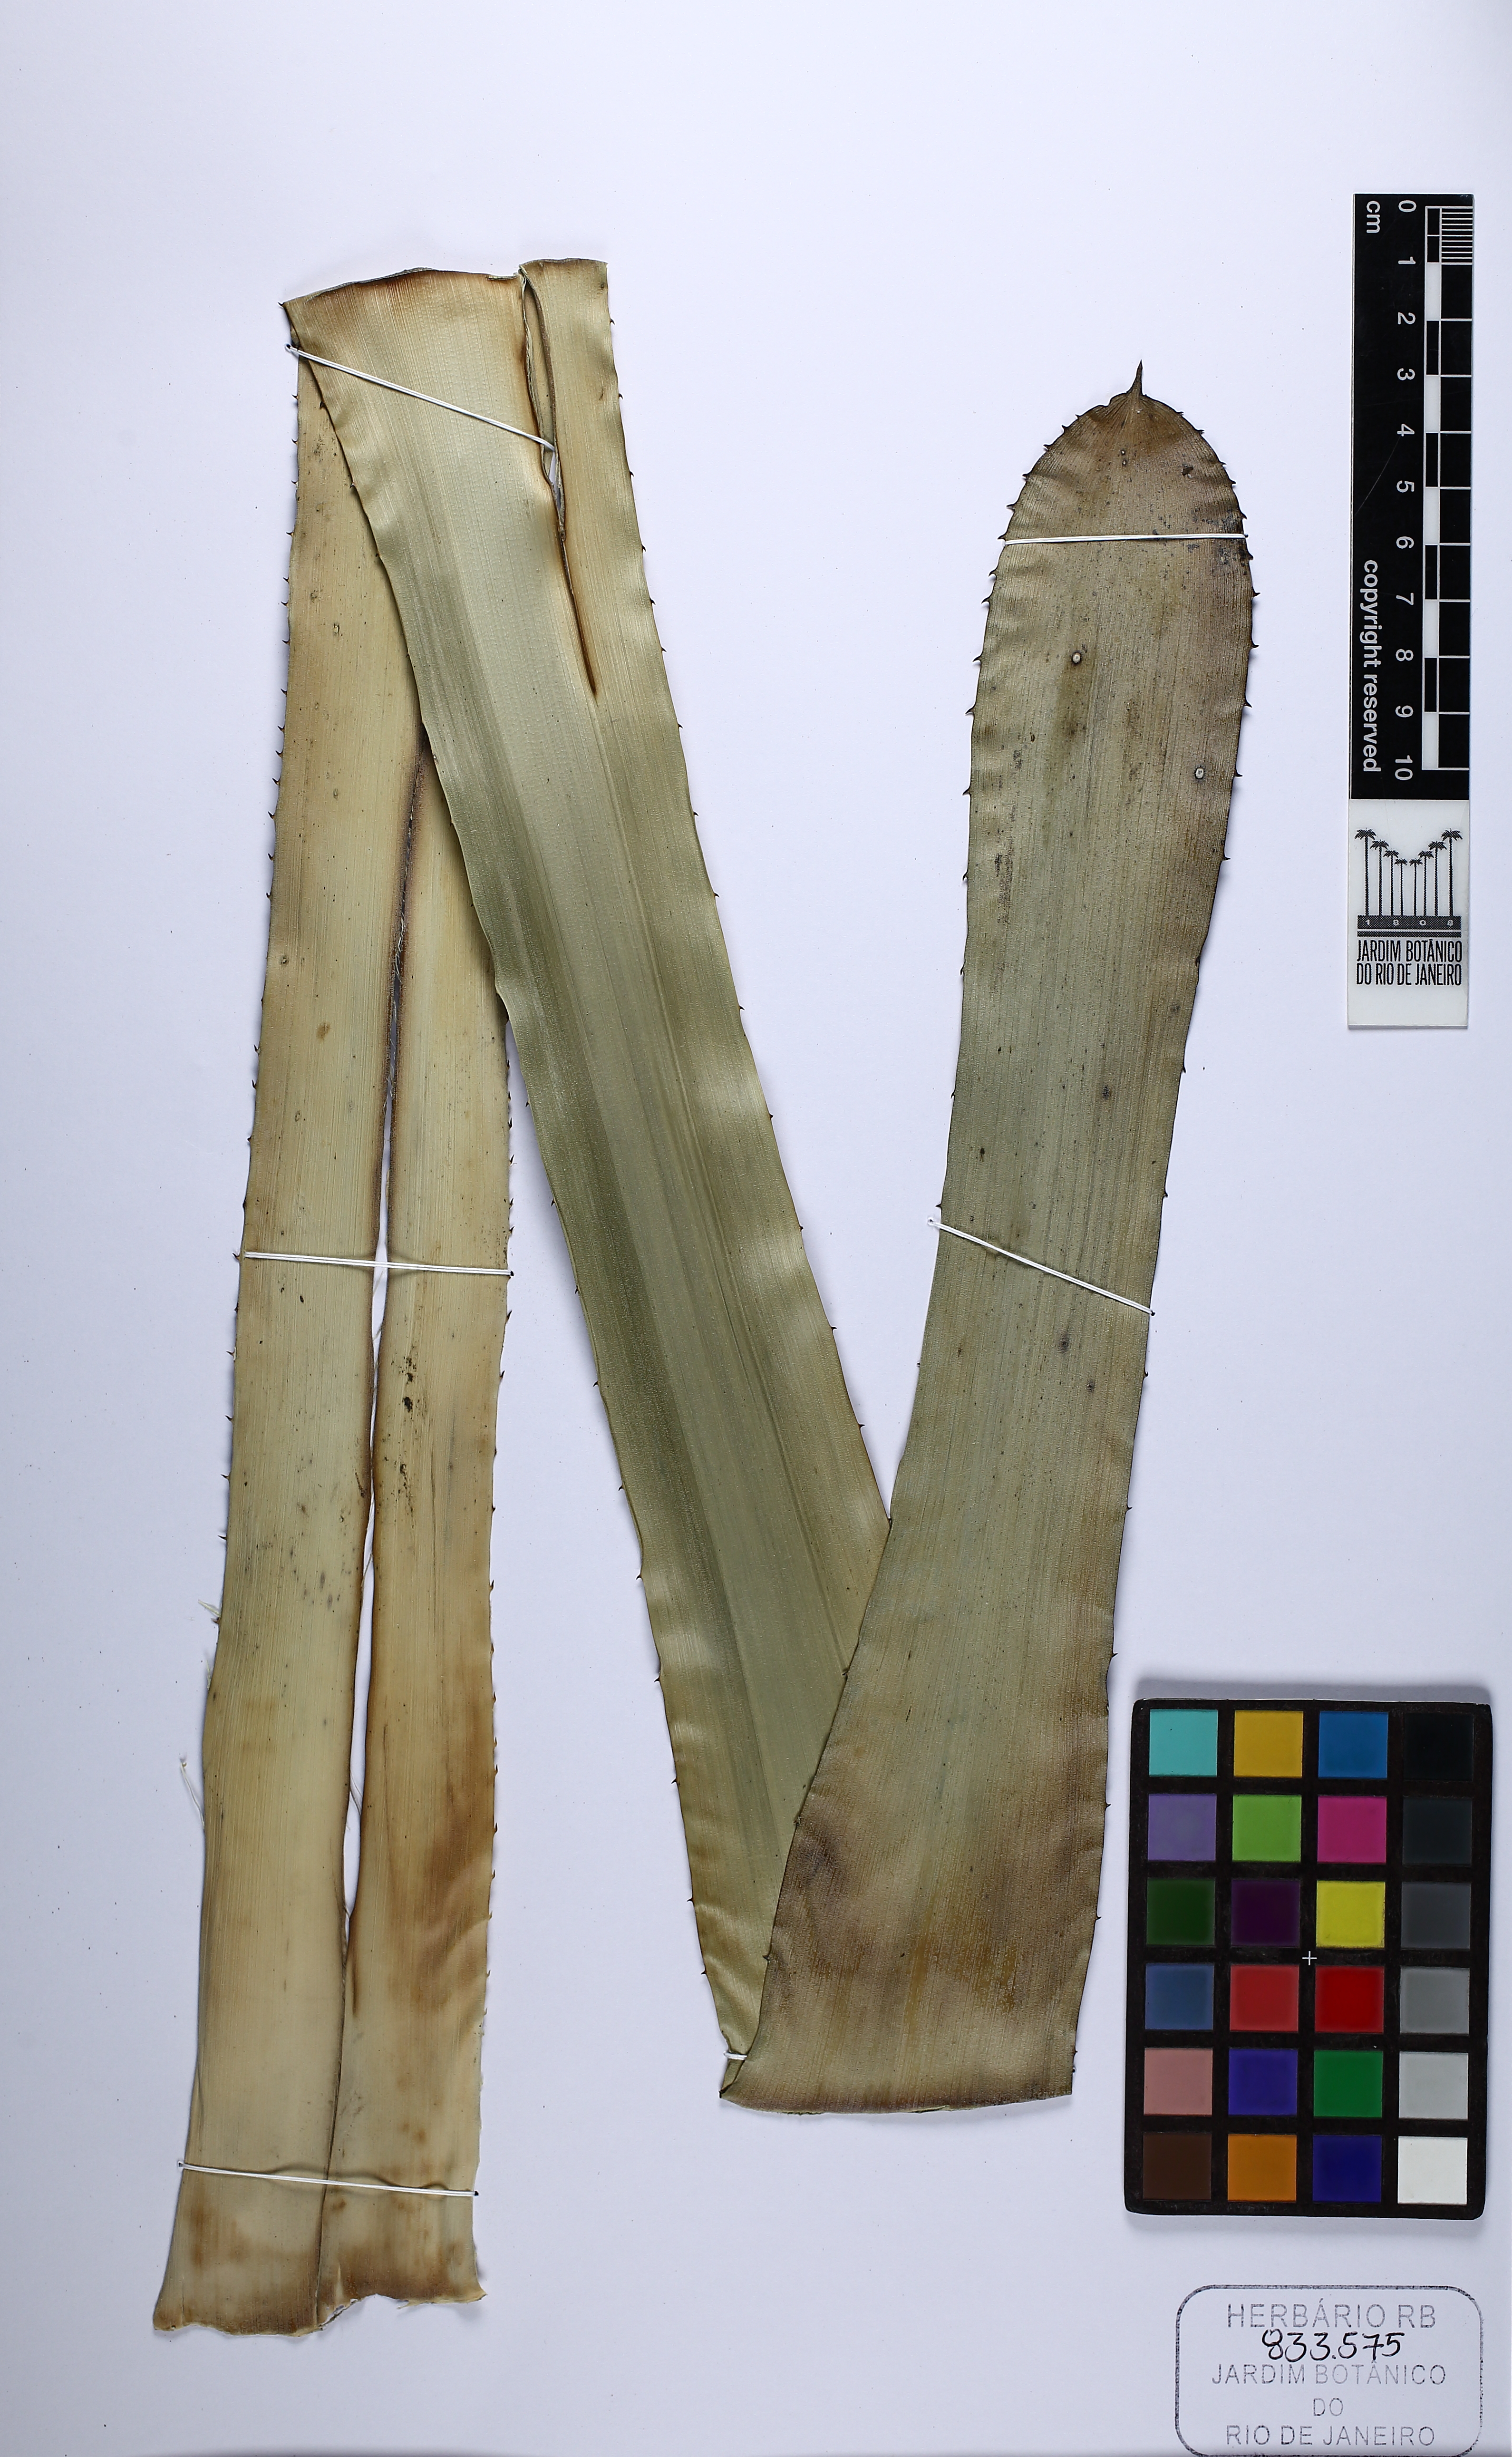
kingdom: Plantae
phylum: Tracheophyta
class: Liliopsida
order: Poales
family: Bromeliaceae
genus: Hohenbergia
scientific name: Hohenbergia stellata
